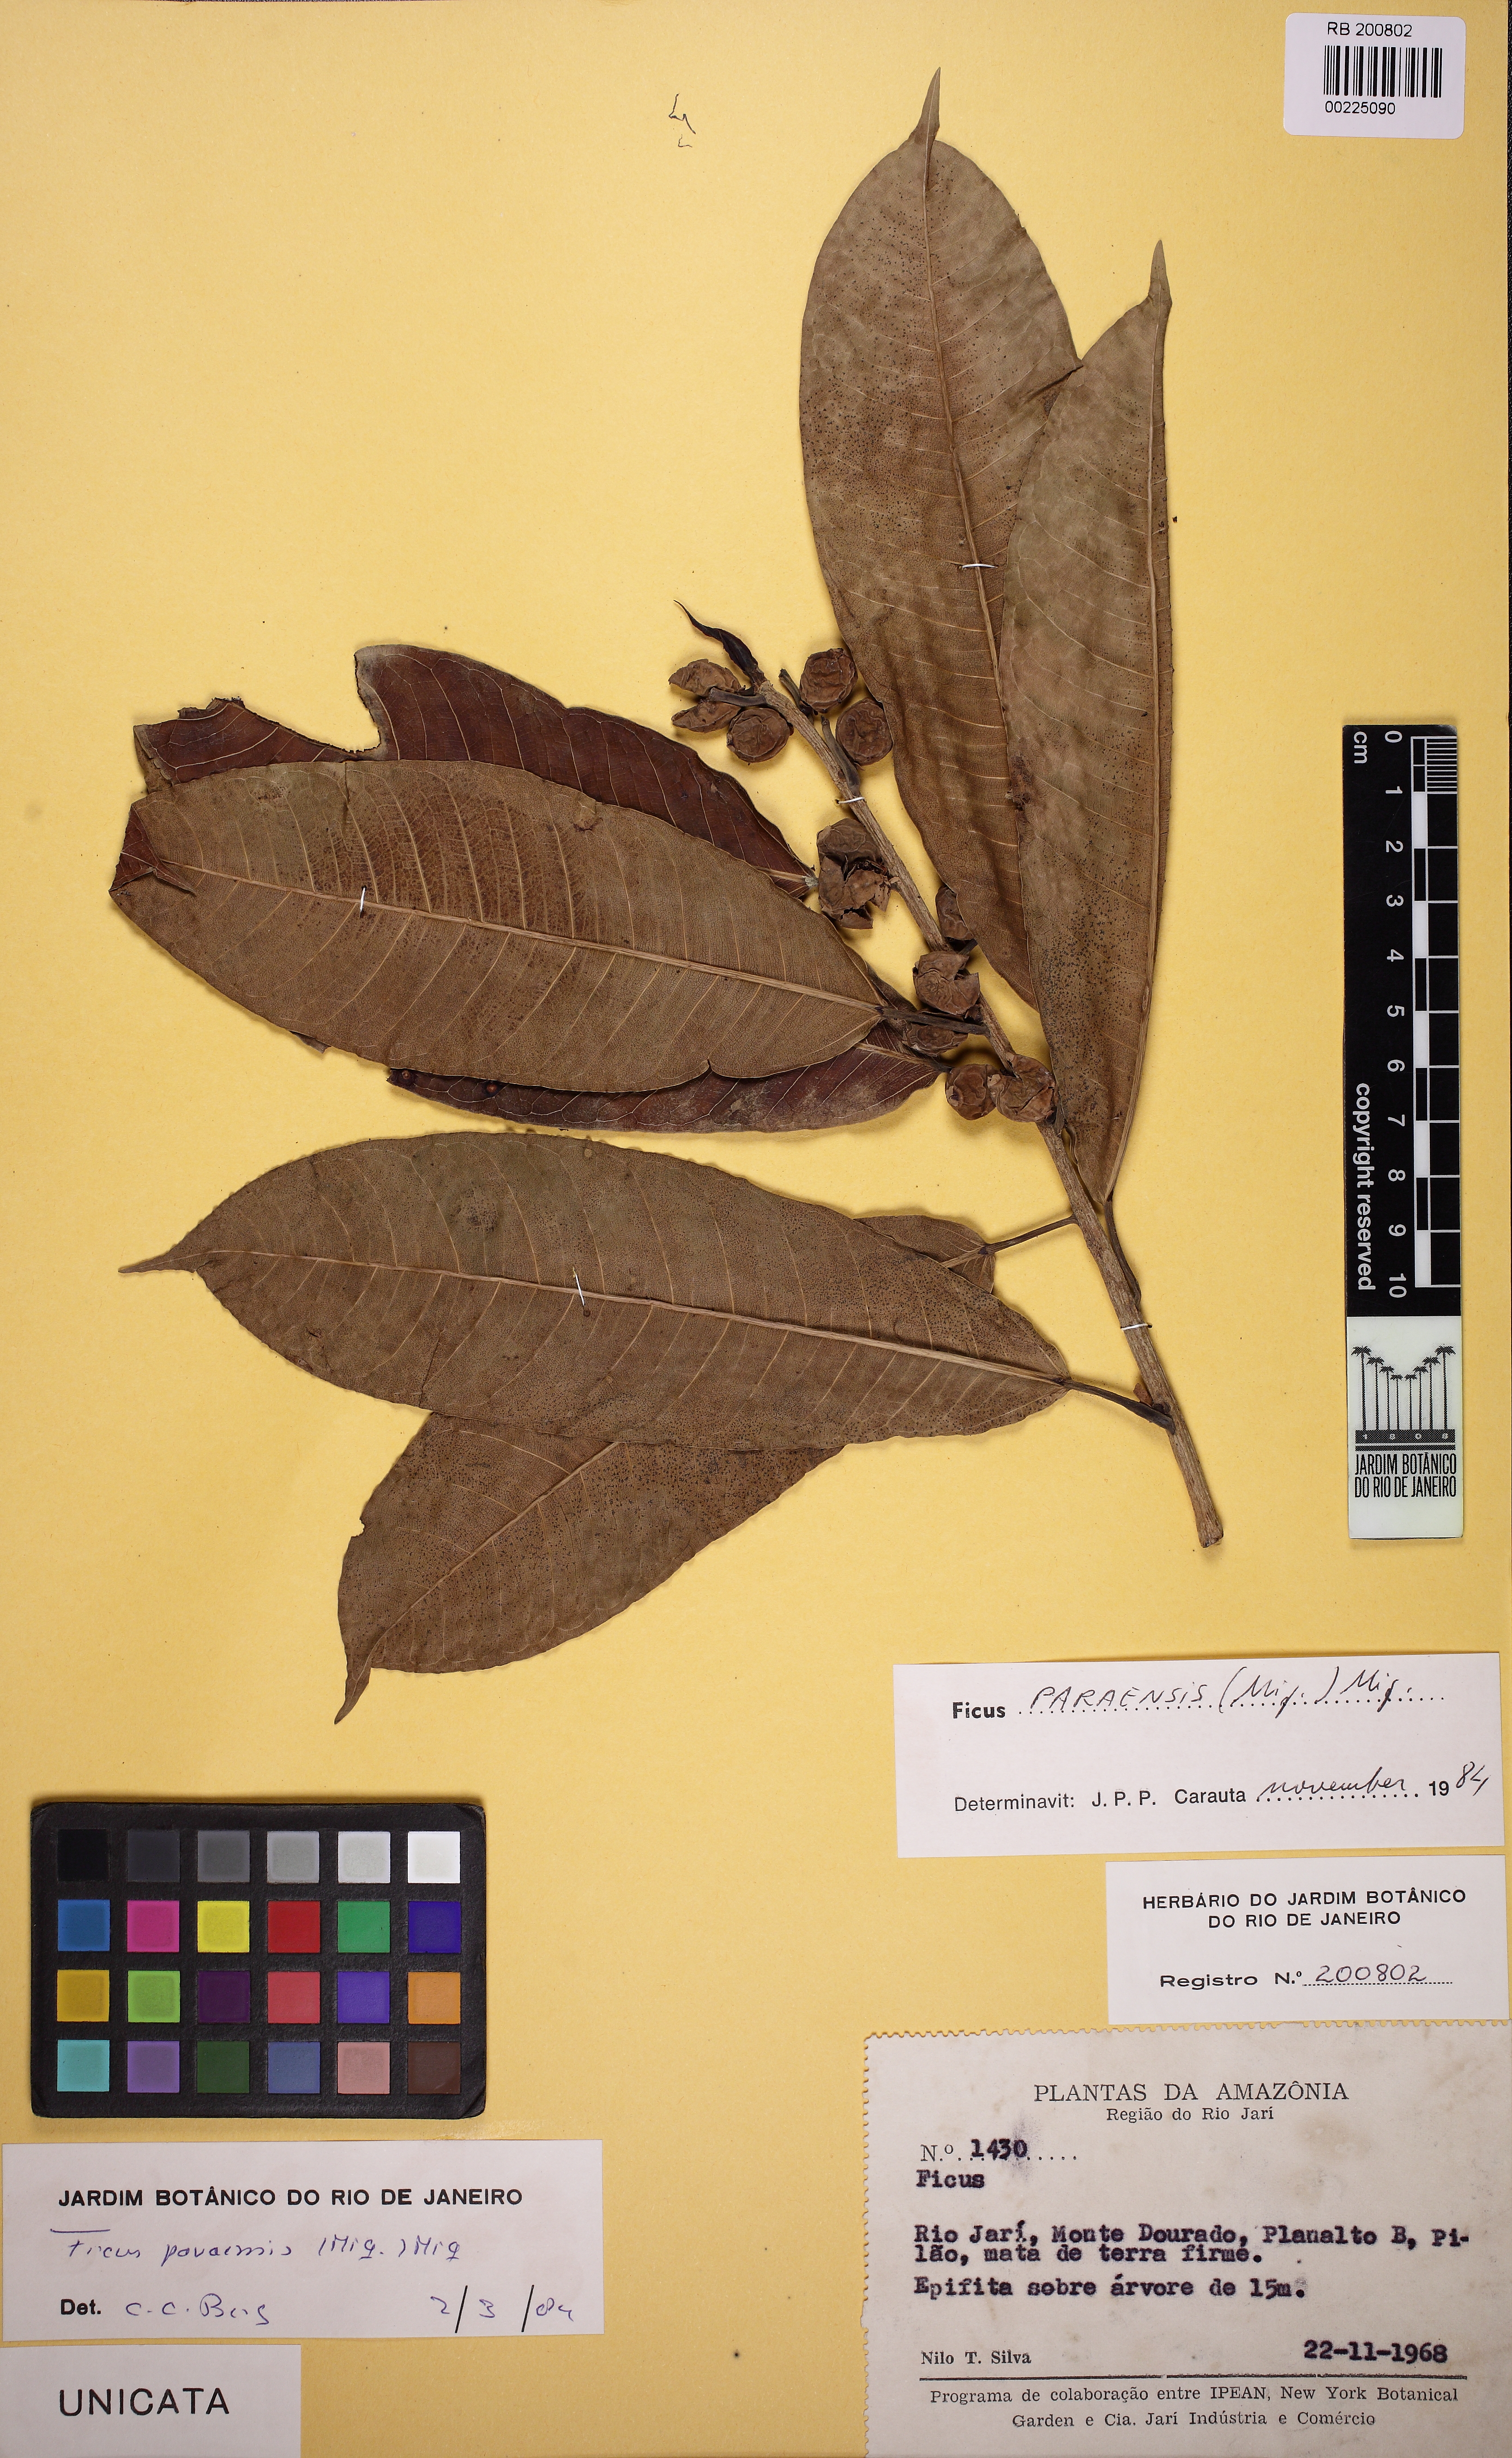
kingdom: Plantae
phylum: Tracheophyta
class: Magnoliopsida
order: Rosales
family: Moraceae
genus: Ficus
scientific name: Ficus paraensis
